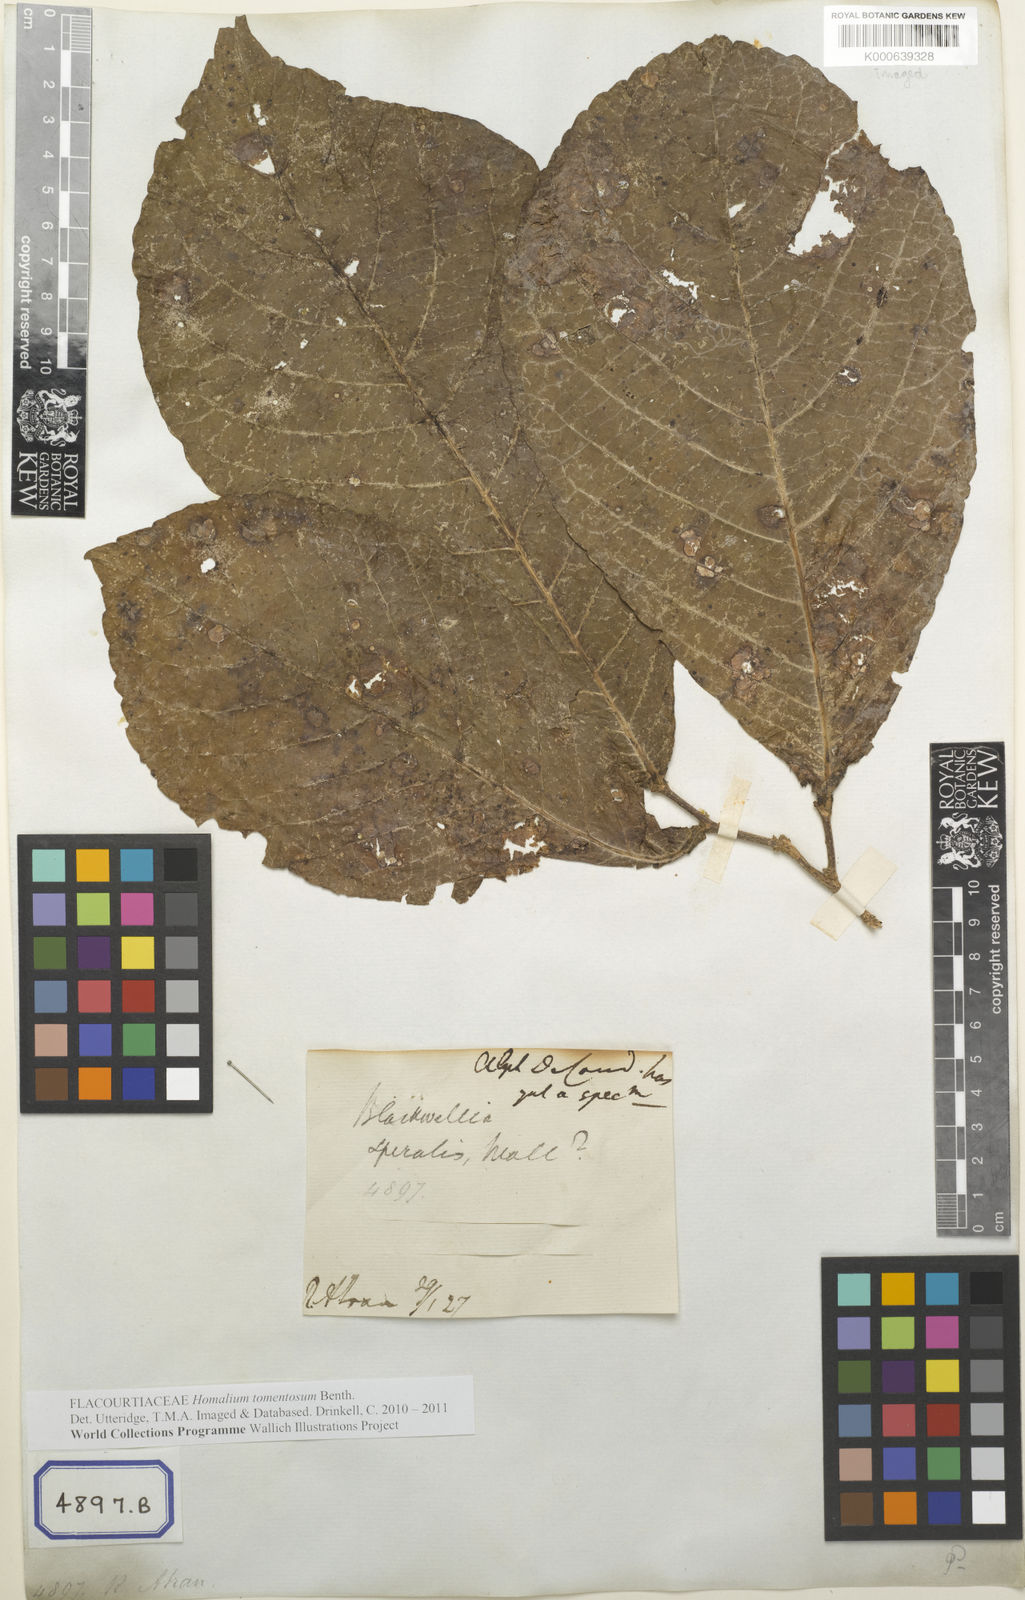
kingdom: Plantae
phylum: Tracheophyta
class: Magnoliopsida
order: Malpighiales
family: Salicaceae
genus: Homalium
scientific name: Homalium tomentosum
